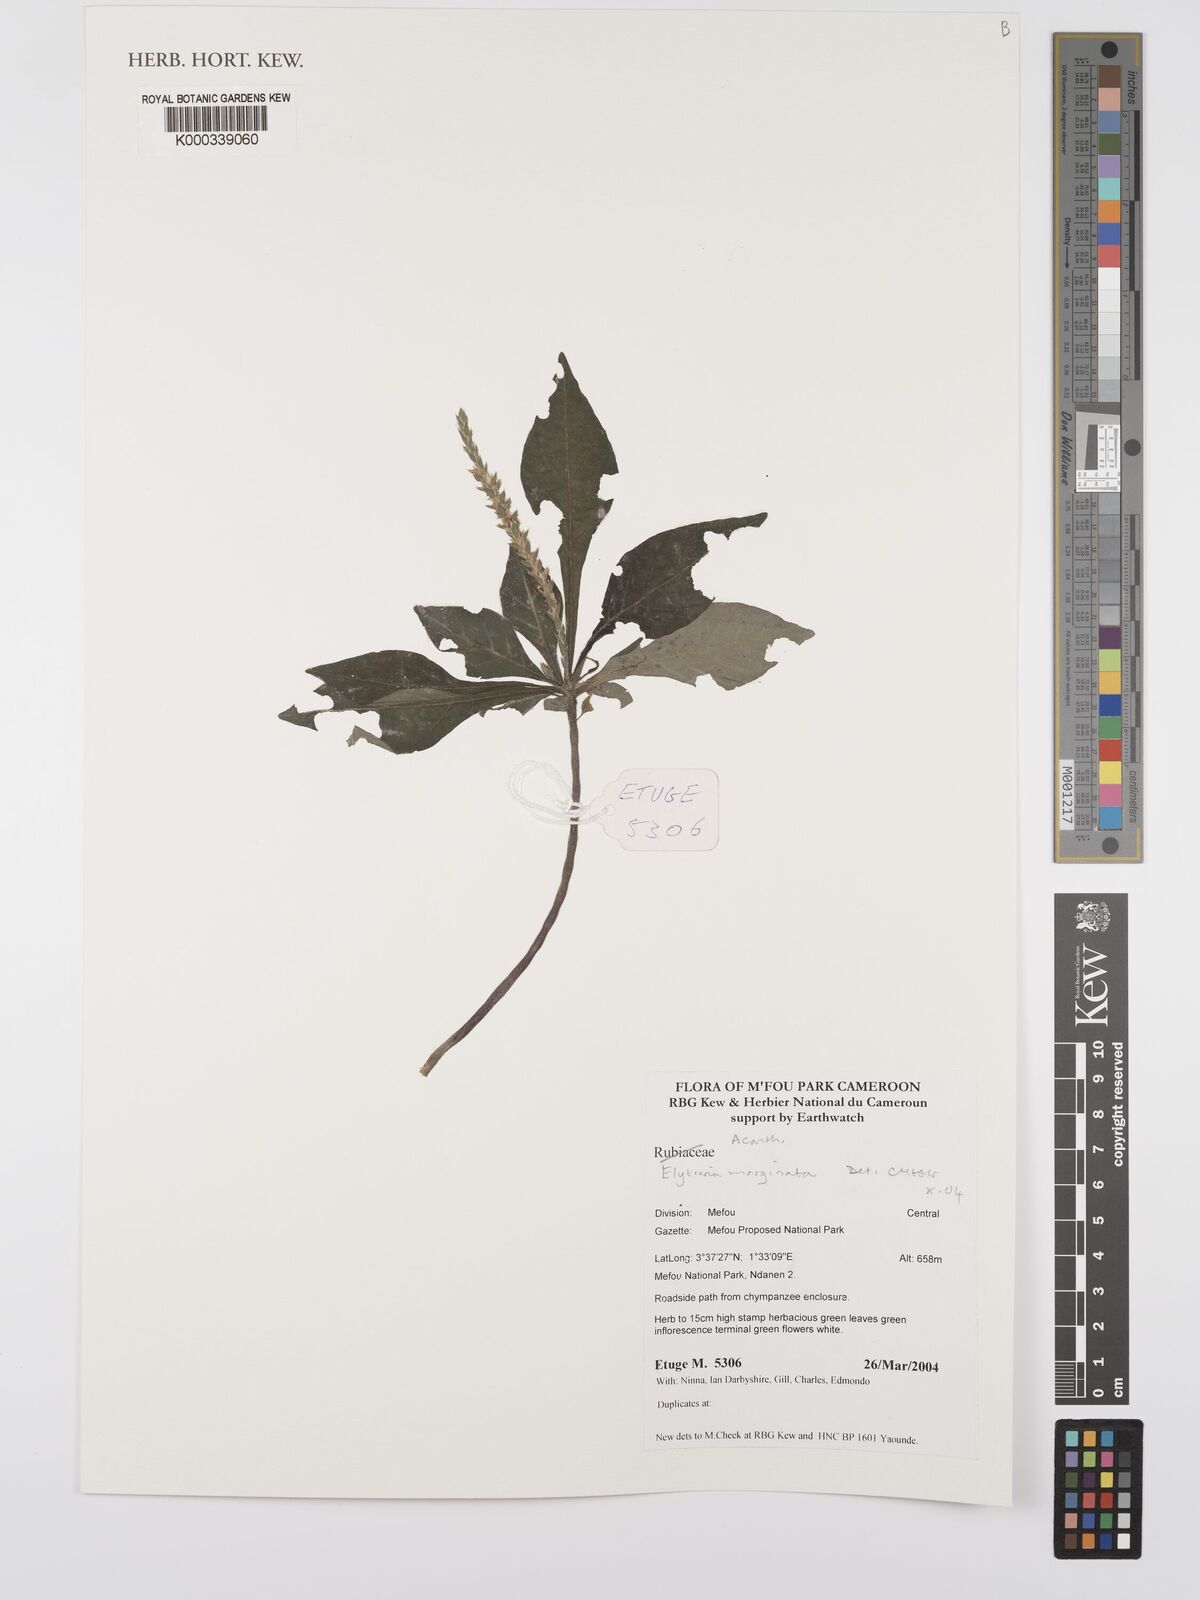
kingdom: Plantae
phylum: Tracheophyta
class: Magnoliopsida
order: Lamiales
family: Acanthaceae
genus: Elytraria
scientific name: Elytraria marginata
